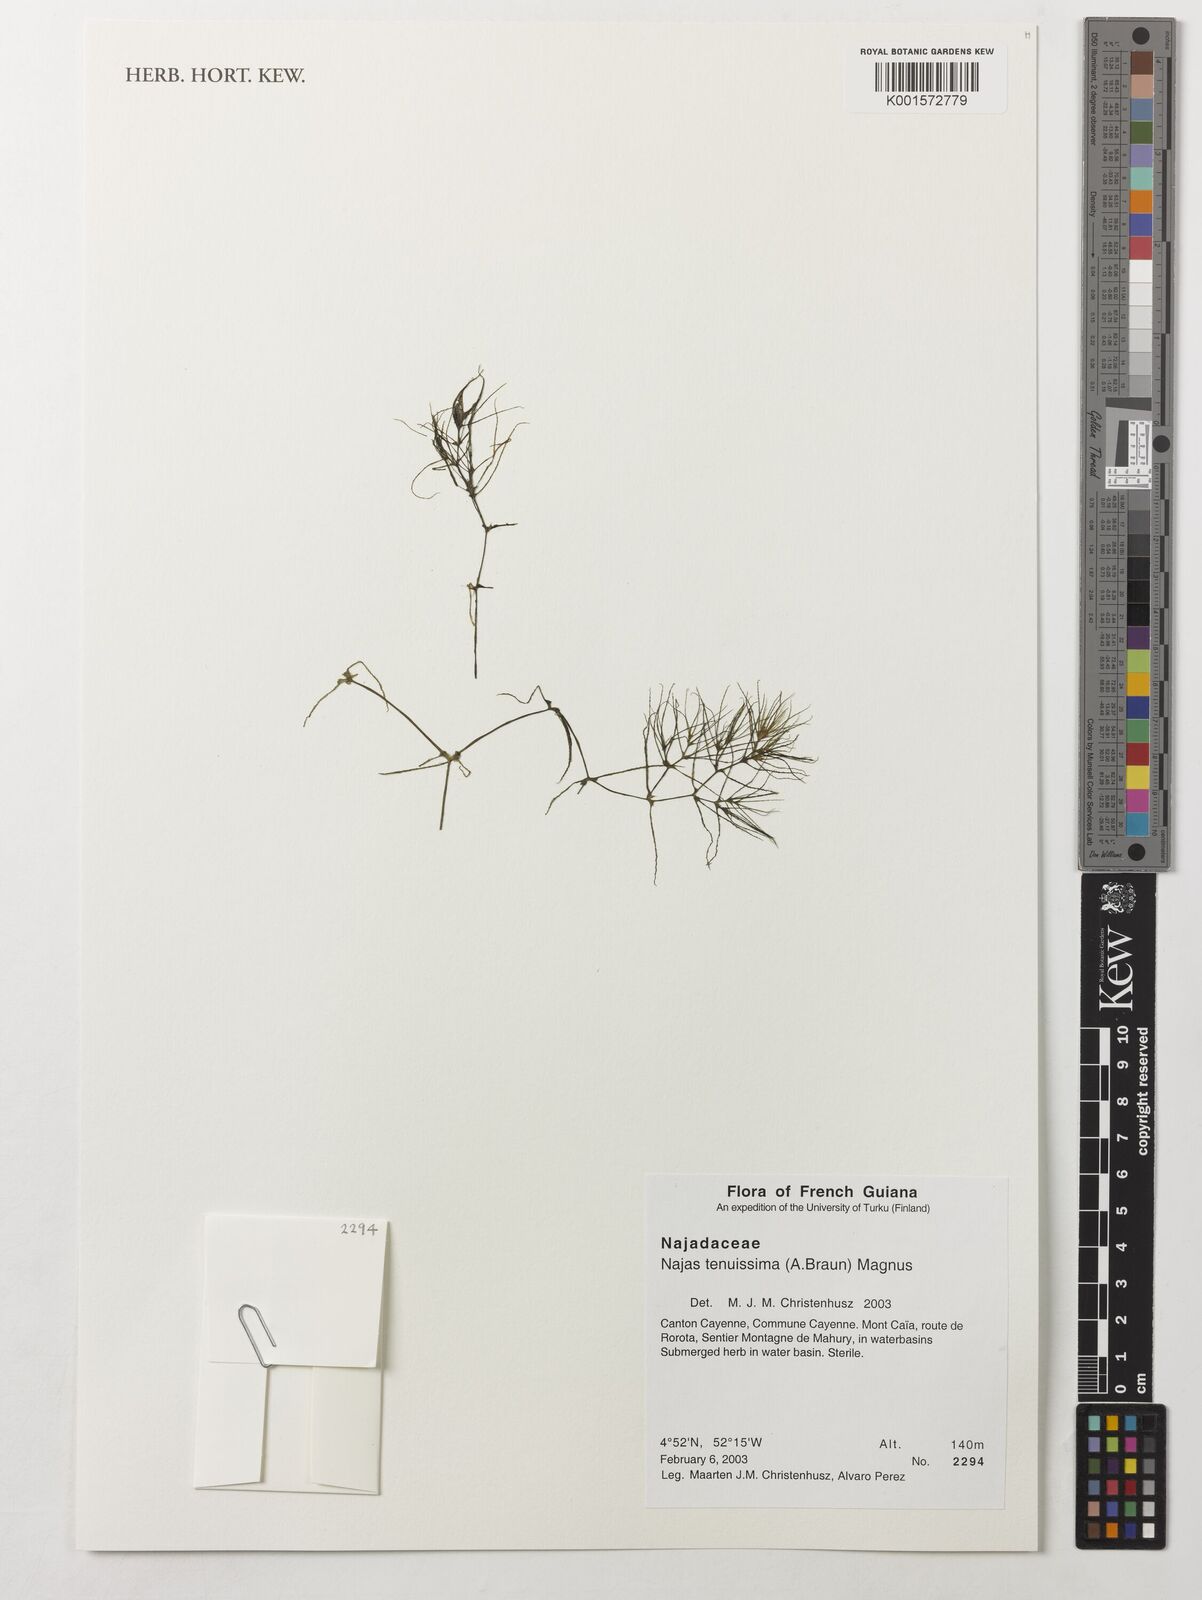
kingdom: Plantae
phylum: Tracheophyta
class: Liliopsida
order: Alismatales
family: Hydrocharitaceae
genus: Najas
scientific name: Najas tenuissima
